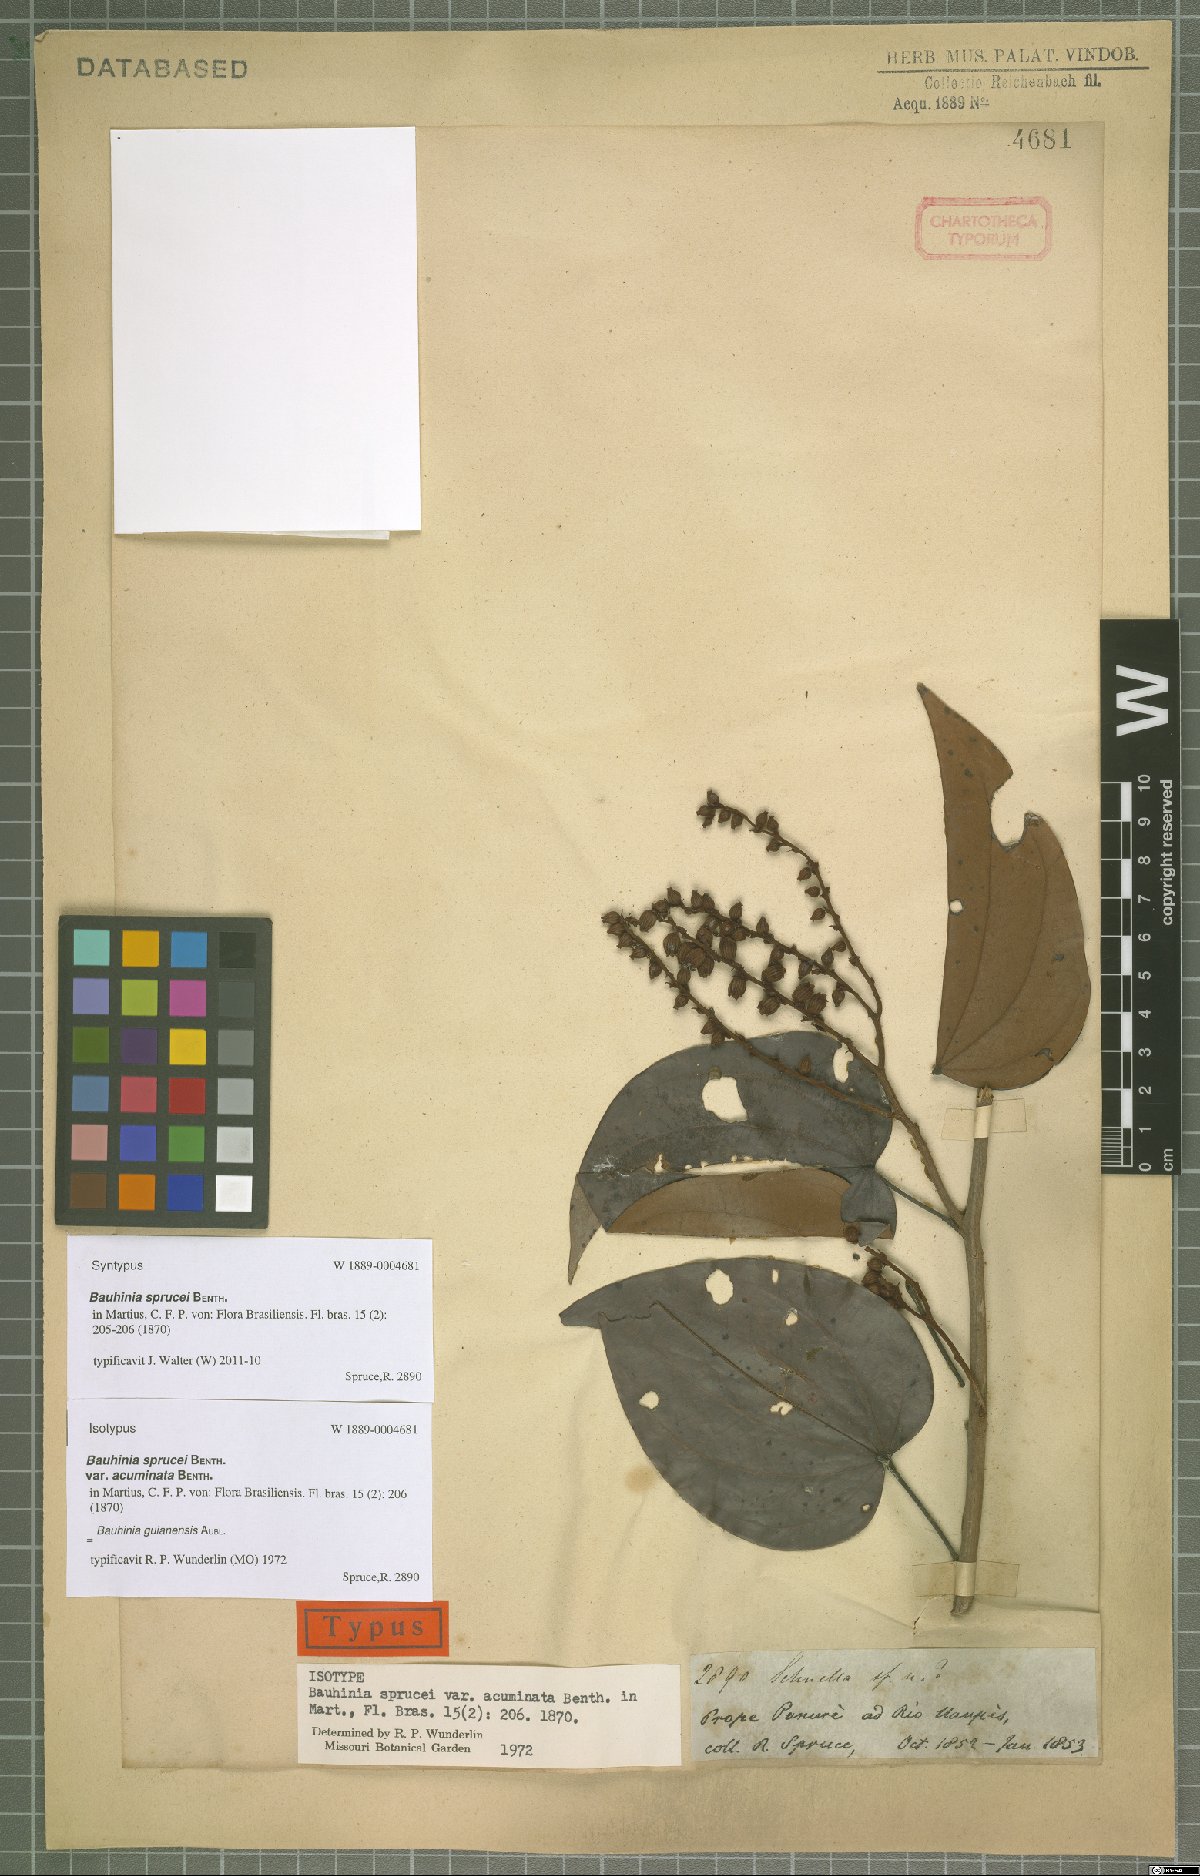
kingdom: Plantae
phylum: Tracheophyta
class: Magnoliopsida
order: Fabales
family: Fabaceae
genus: Schnella
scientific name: Schnella guianensis
